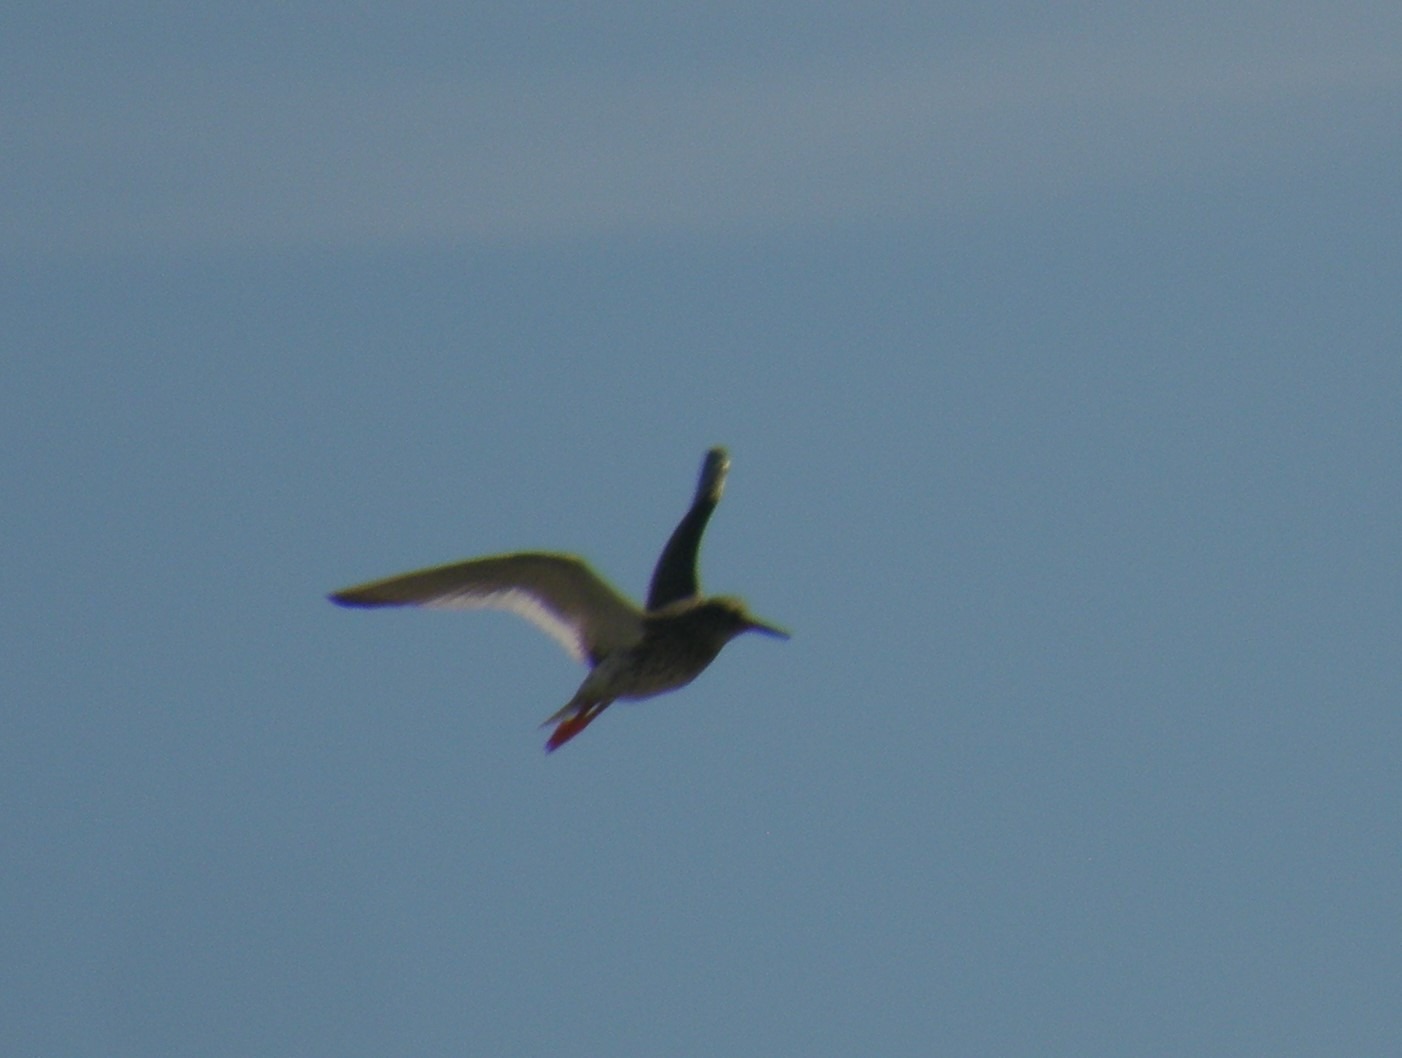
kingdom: Animalia
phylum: Chordata
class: Aves
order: Charadriiformes
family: Scolopacidae
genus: Tringa
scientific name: Tringa totanus
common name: Rødben
